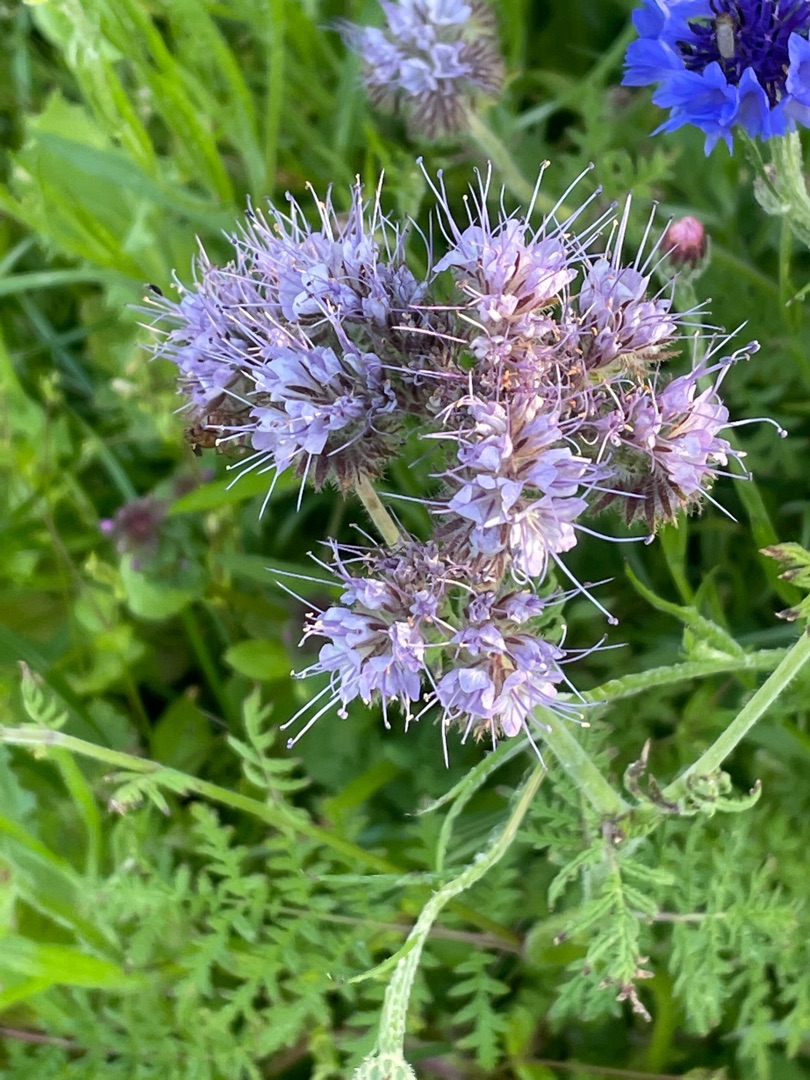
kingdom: Plantae
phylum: Tracheophyta
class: Magnoliopsida
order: Boraginales
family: Hydrophyllaceae
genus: Phacelia
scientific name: Phacelia tanacetifolia
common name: Honningurt
